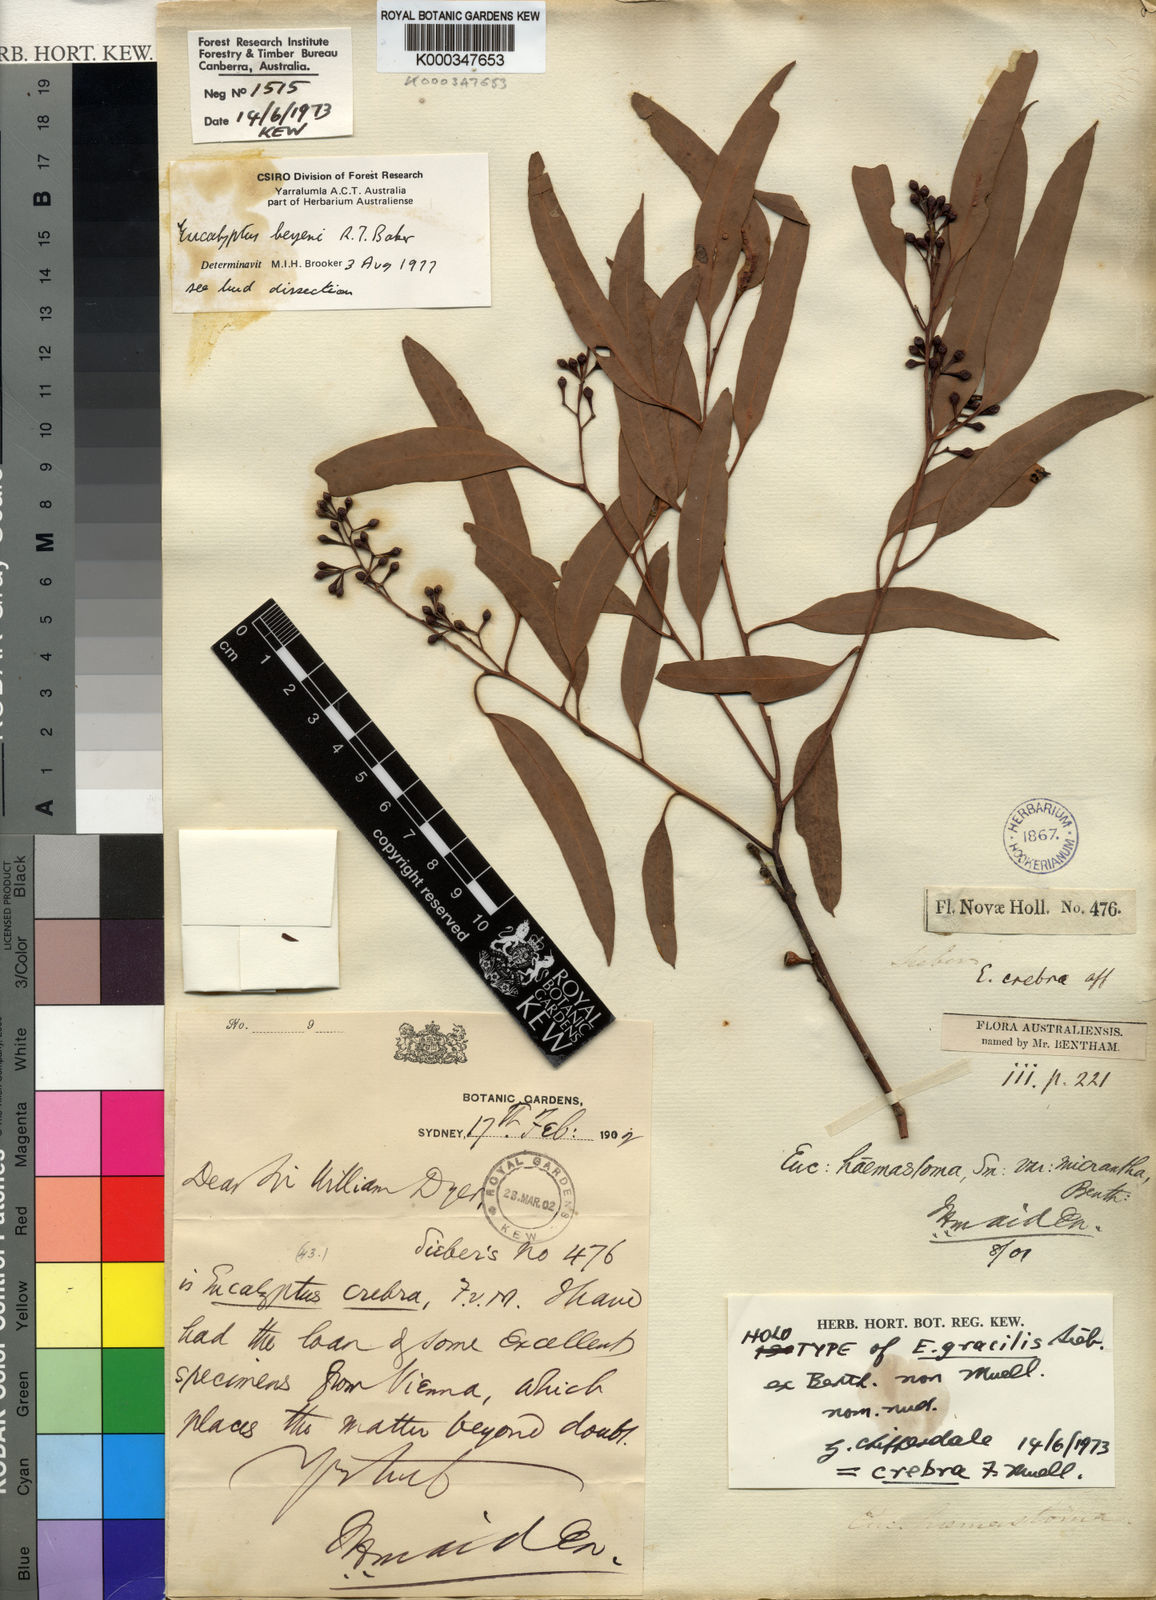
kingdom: Plantae
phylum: Tracheophyta
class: Magnoliopsida
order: Myrtales
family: Myrtaceae
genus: Eucalyptus
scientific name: Eucalyptus beyeri
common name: Beyer's ironbark
